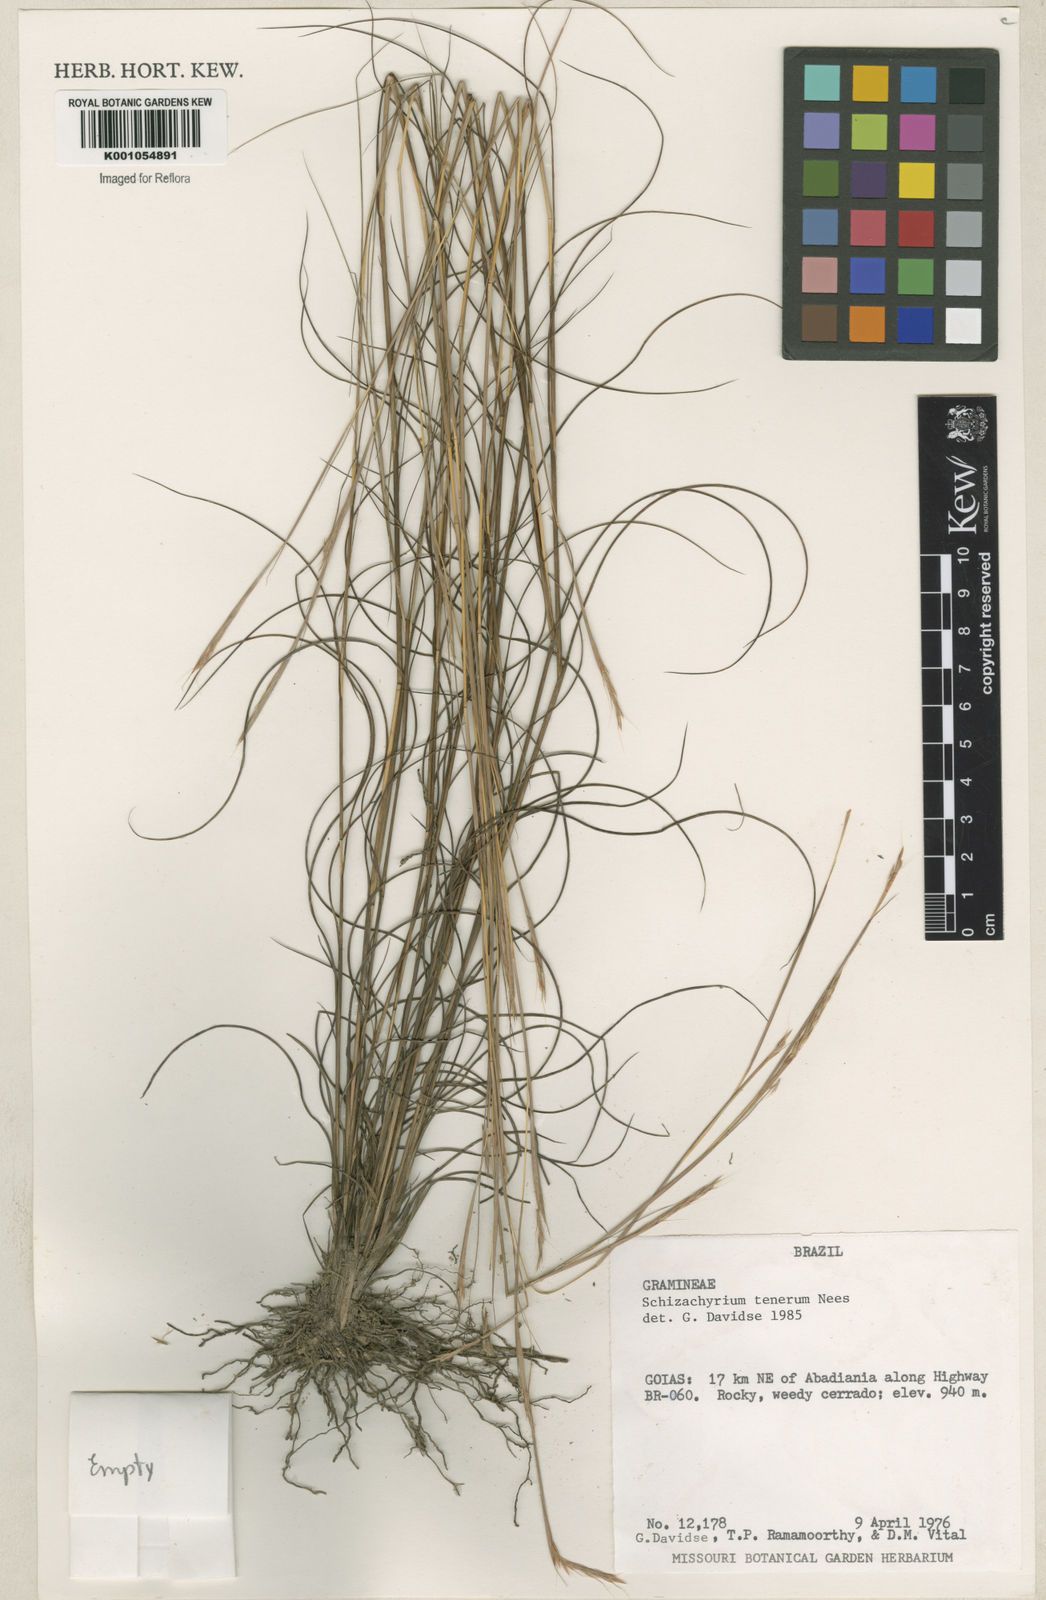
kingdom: Plantae
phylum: Tracheophyta
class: Liliopsida
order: Poales
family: Poaceae
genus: Andropogon
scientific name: Andropogon tener
